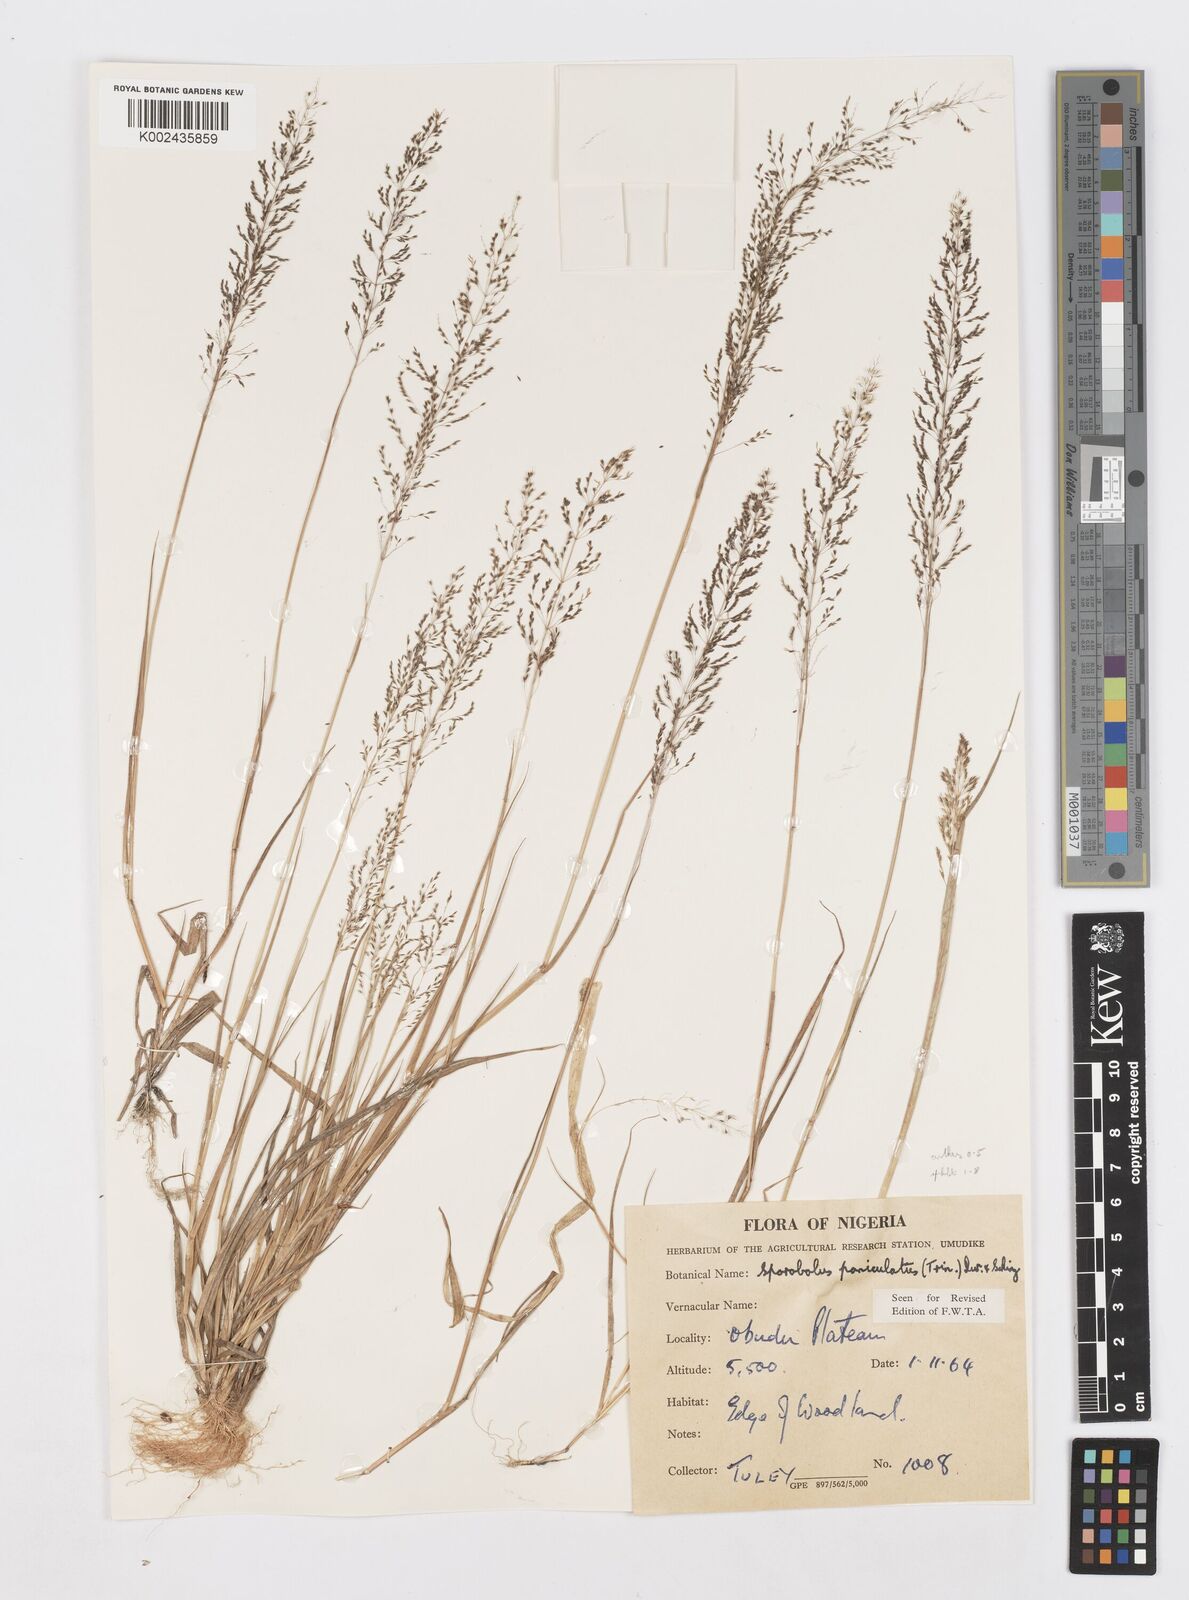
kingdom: Plantae
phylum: Tracheophyta
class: Liliopsida
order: Poales
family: Poaceae
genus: Sporobolus
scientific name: Sporobolus paniculatus
